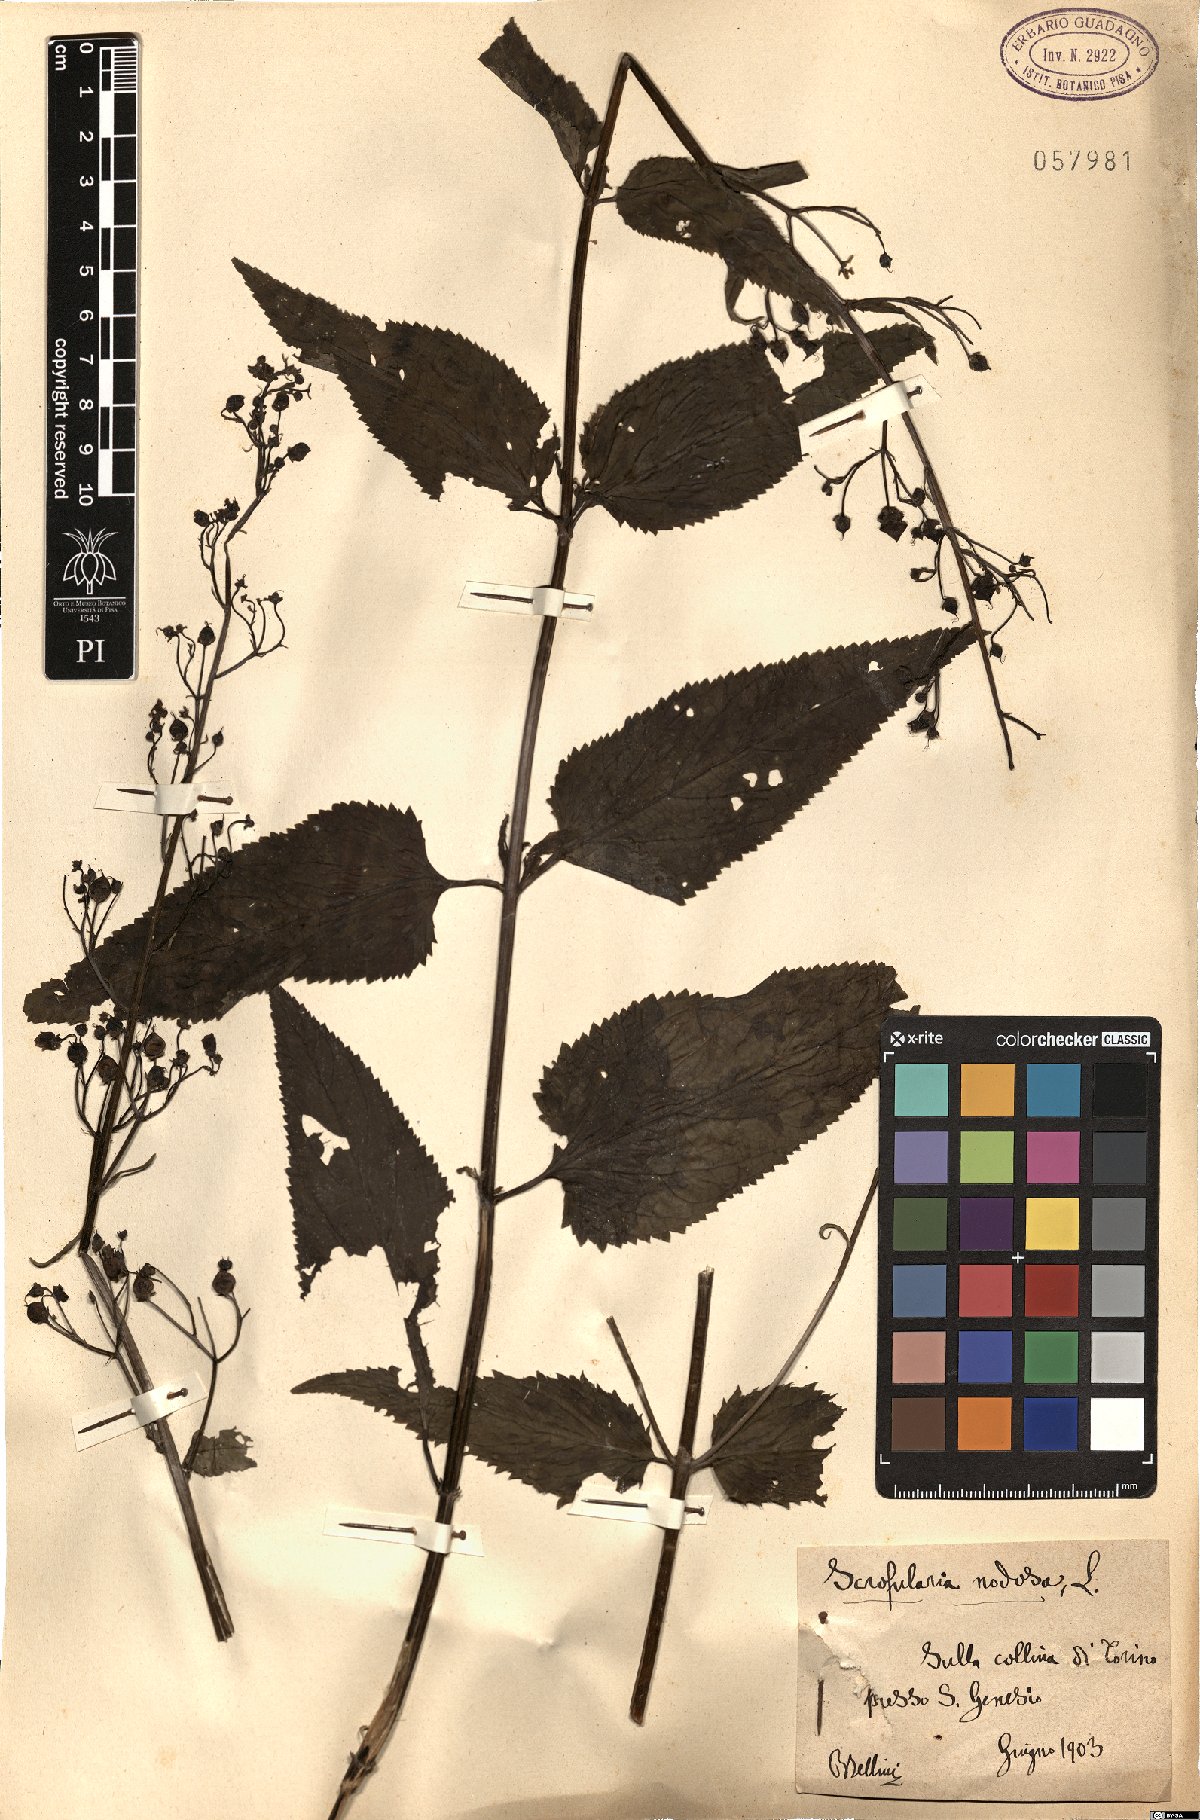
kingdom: Plantae
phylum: Tracheophyta
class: Magnoliopsida
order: Lamiales
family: Scrophulariaceae
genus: Scrophularia
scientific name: Scrophularia nodosa
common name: Common figwort
